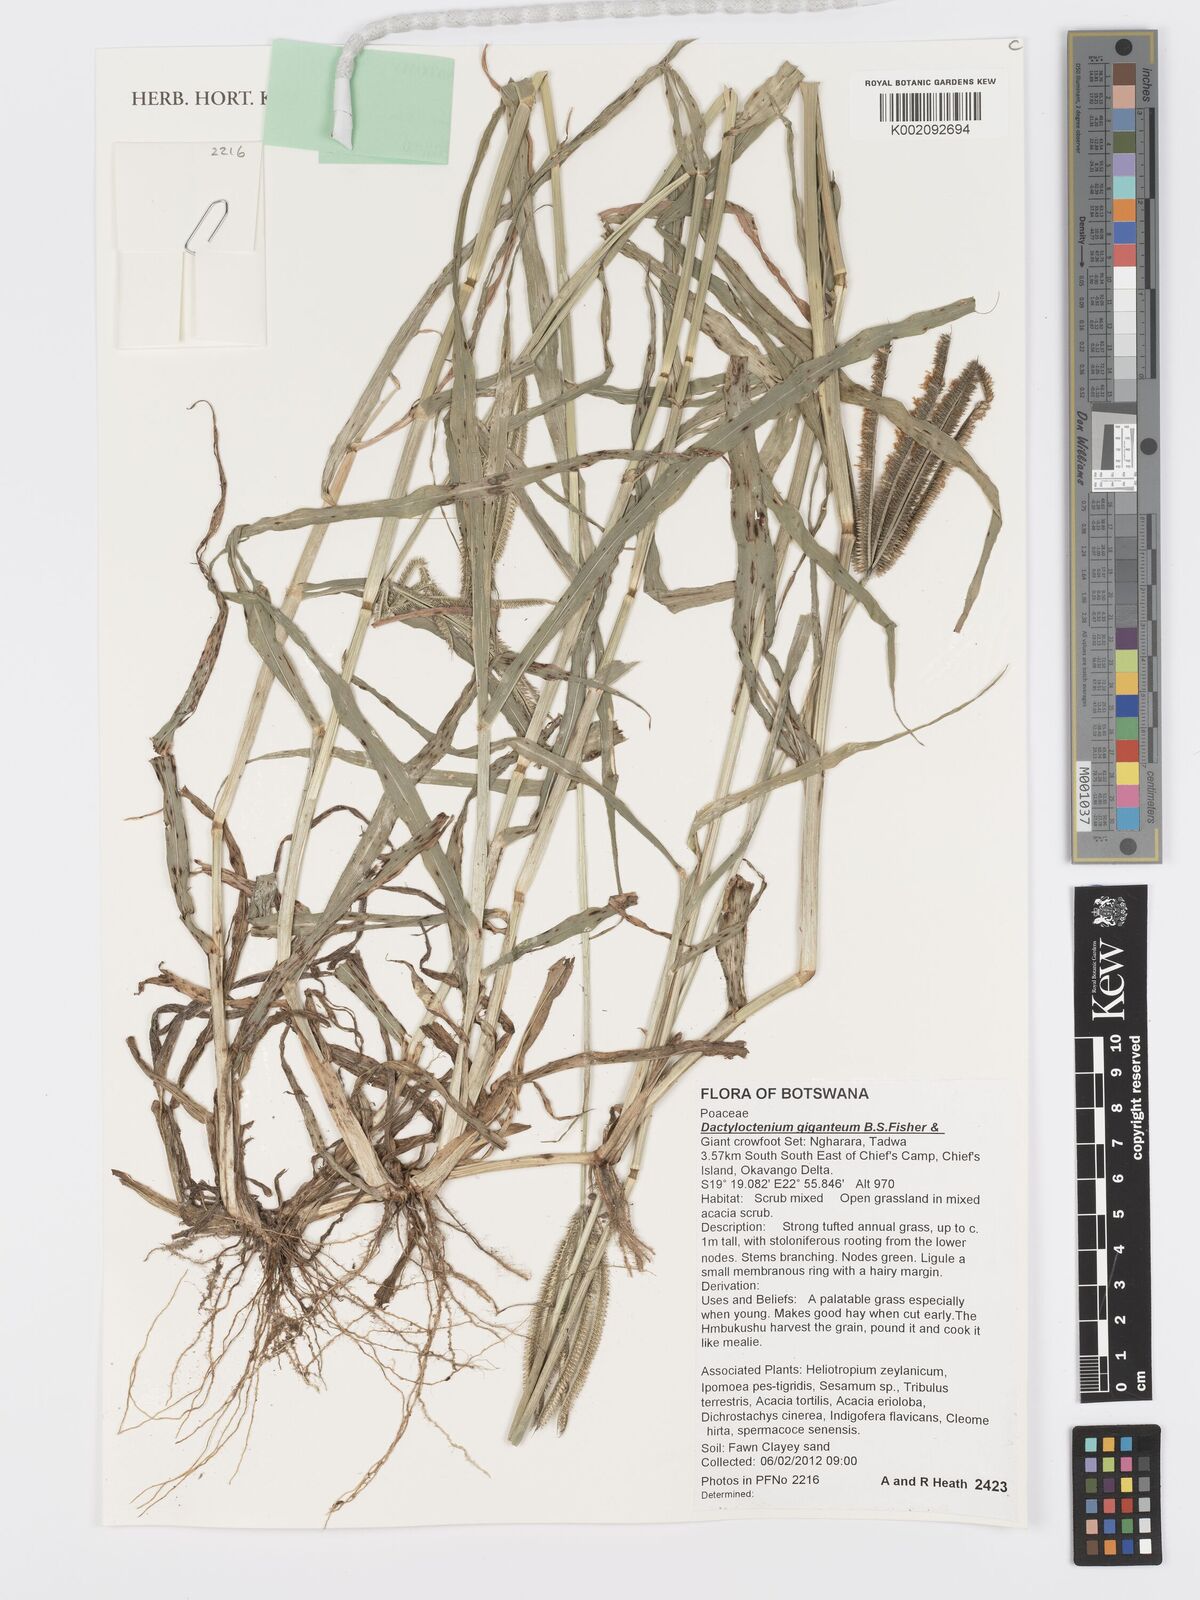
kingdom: Plantae
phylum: Tracheophyta
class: Liliopsida
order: Poales
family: Poaceae
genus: Dactyloctenium
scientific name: Dactyloctenium giganteum
